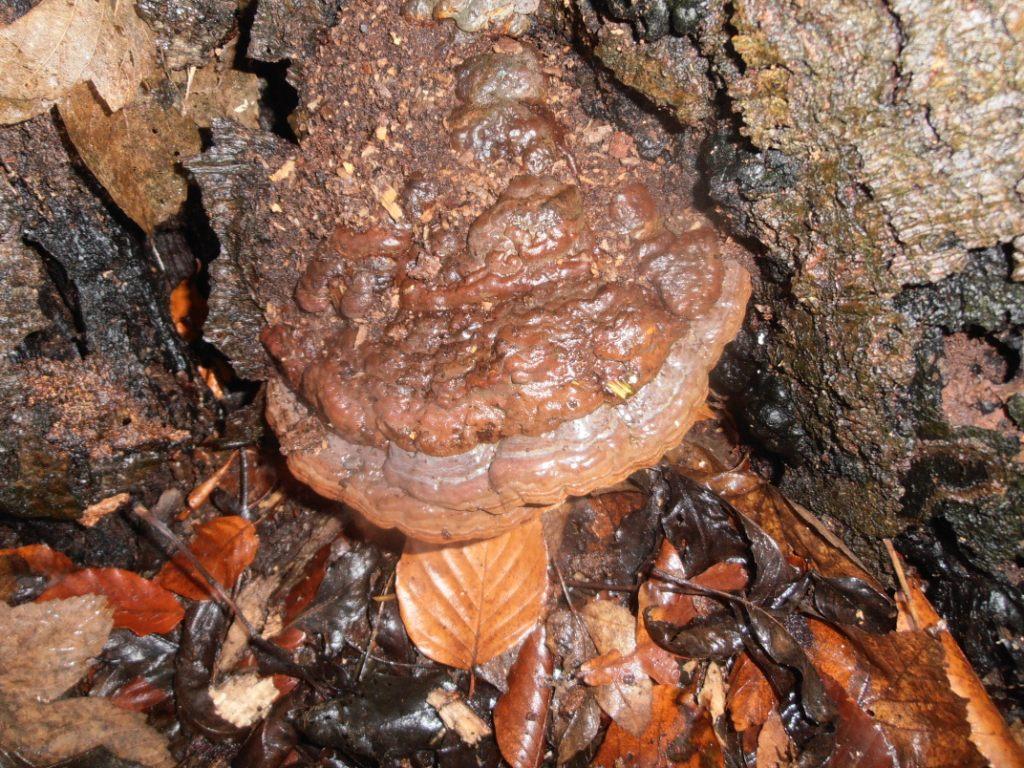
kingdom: Fungi
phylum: Basidiomycota
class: Agaricomycetes
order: Polyporales
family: Polyporaceae
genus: Ganoderma
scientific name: Ganoderma pfeifferi
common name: kobberrød lakporesvamp
